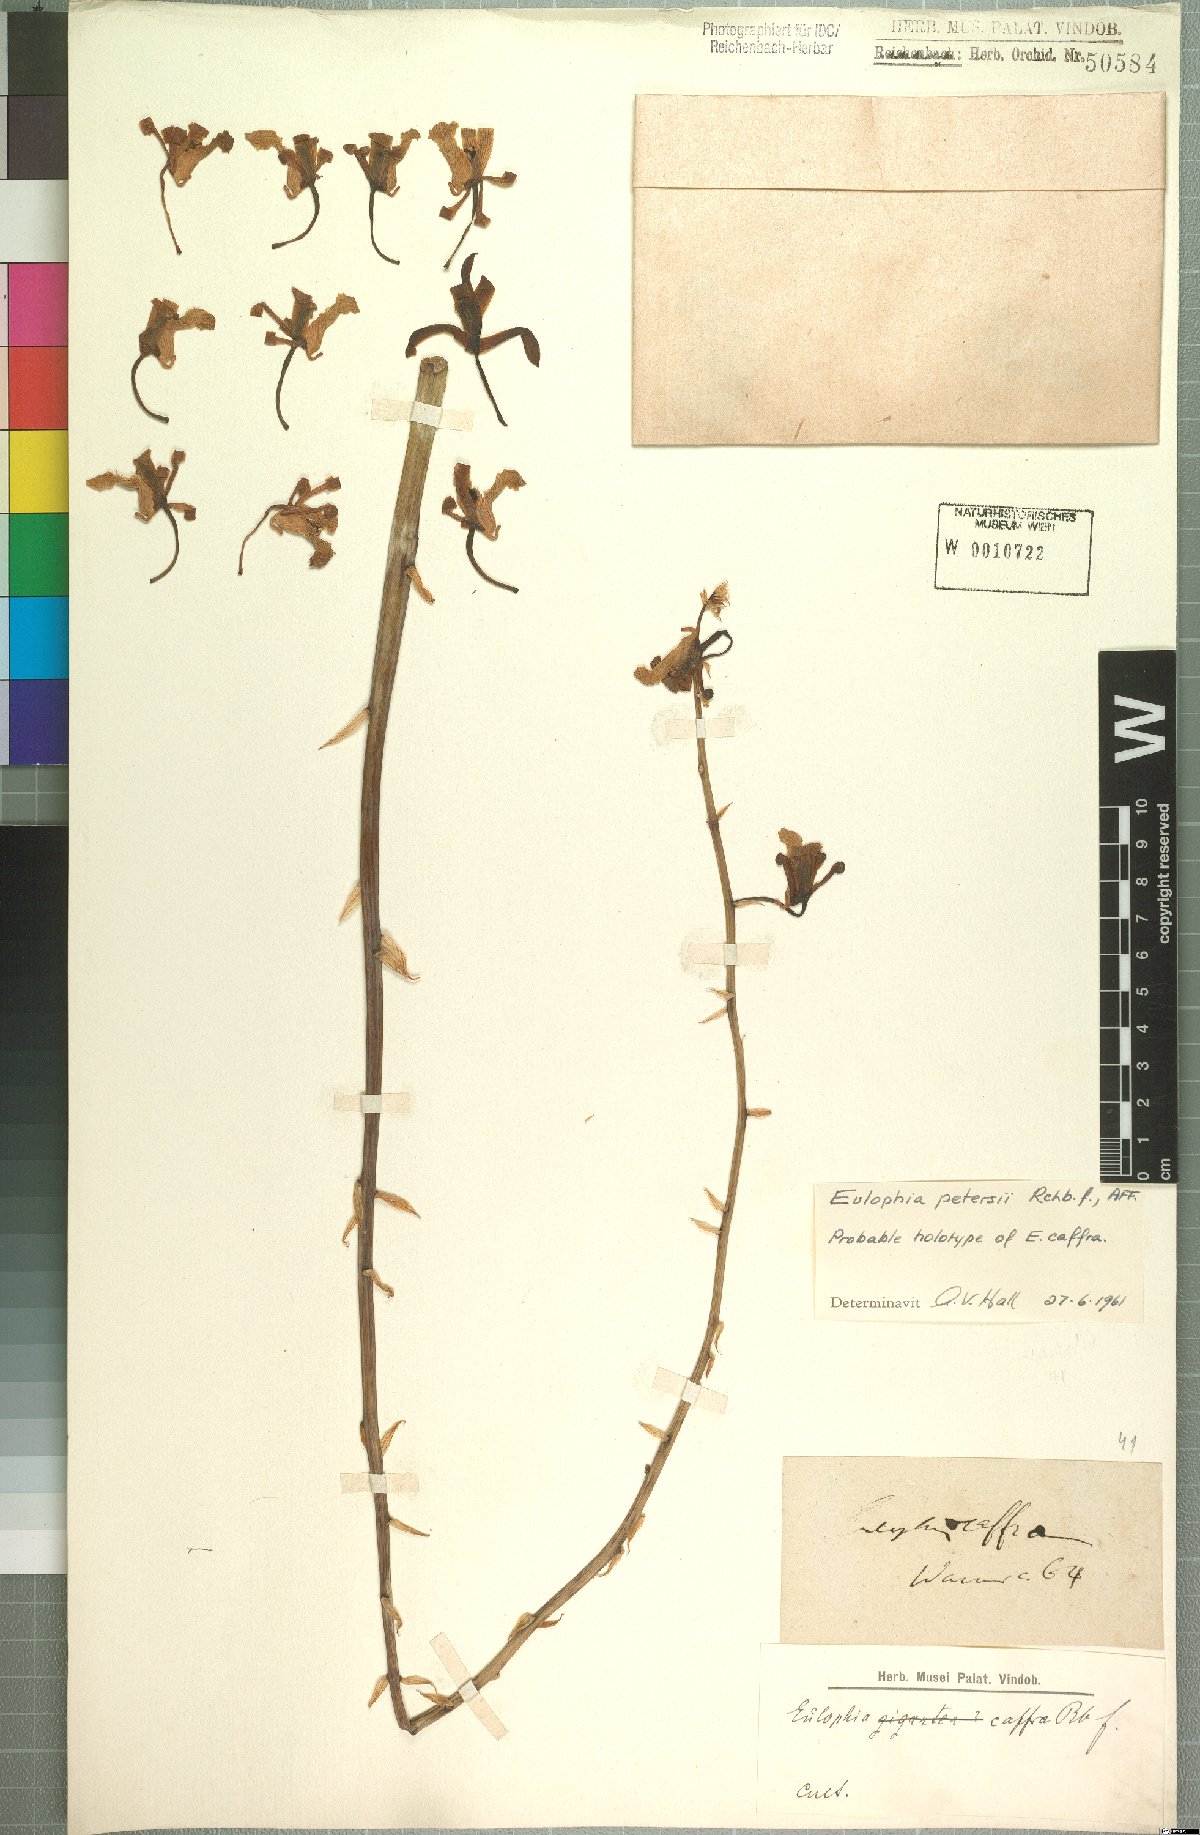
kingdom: Plantae
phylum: Tracheophyta
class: Liliopsida
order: Asparagales
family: Orchidaceae
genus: Eulophia
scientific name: Eulophia petersii
